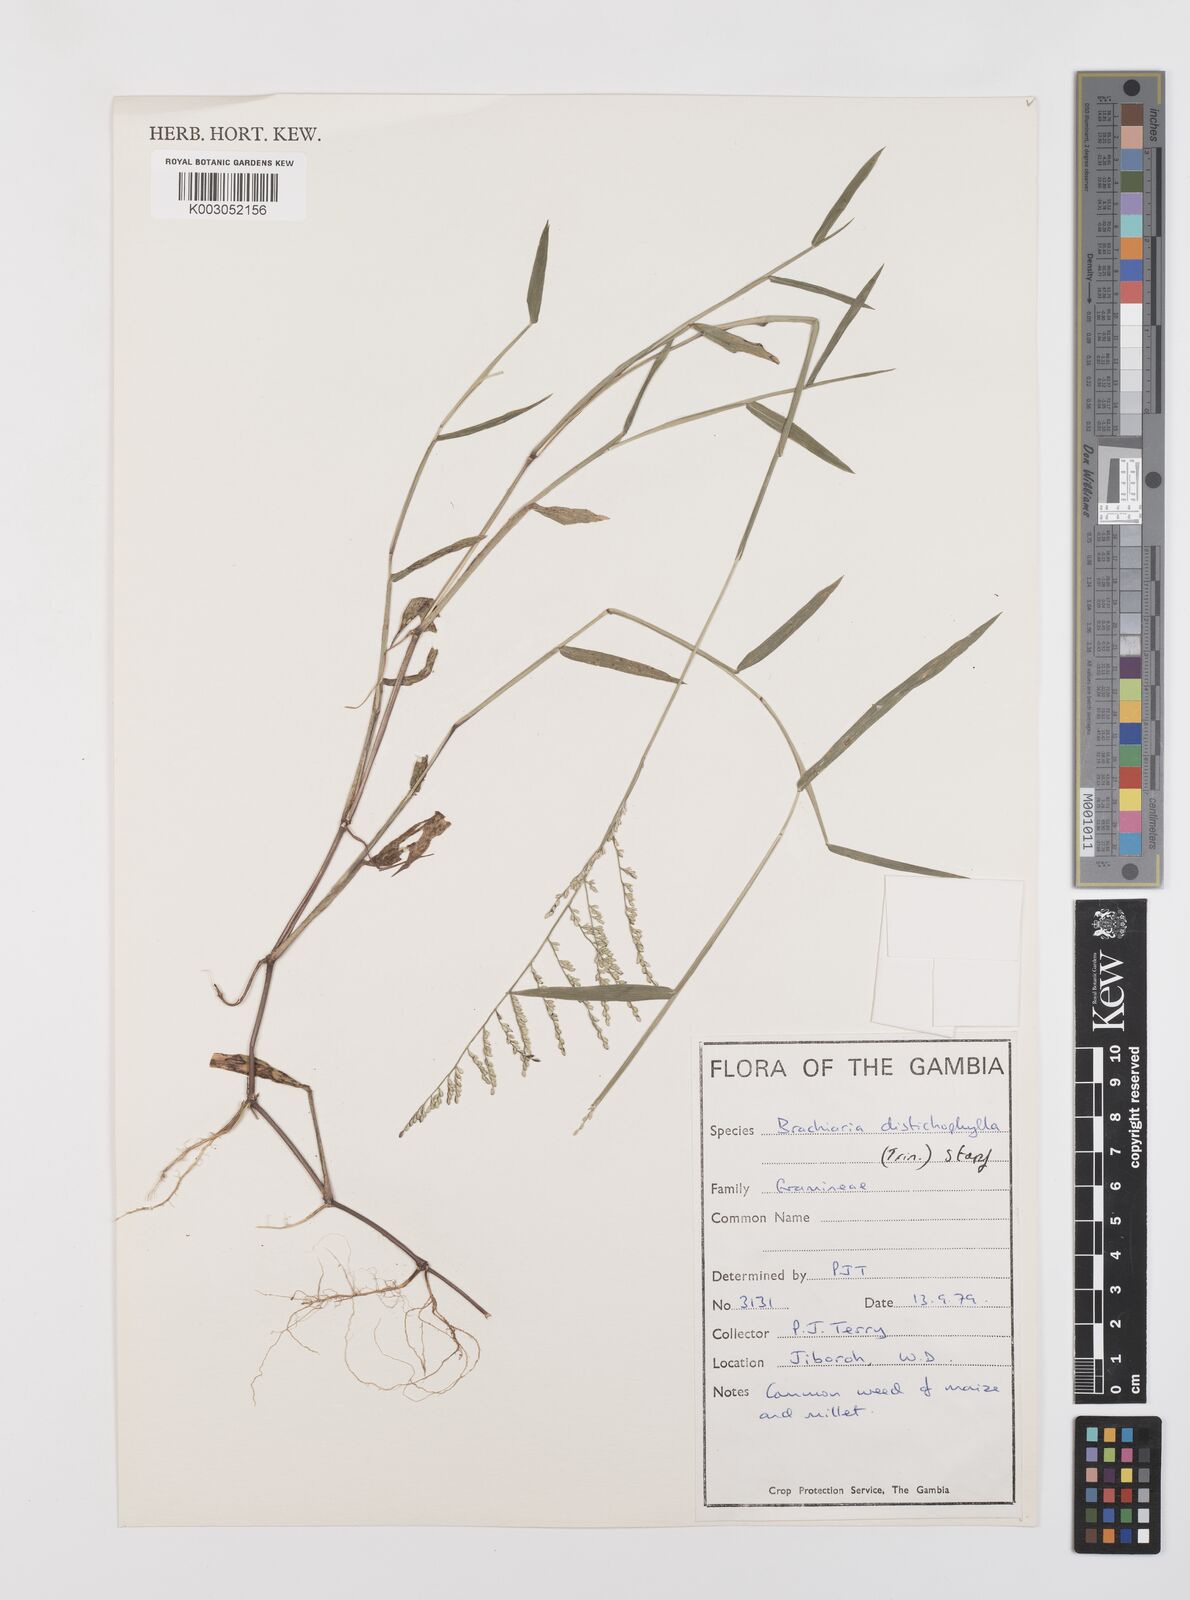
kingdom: Plantae
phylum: Tracheophyta
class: Liliopsida
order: Poales
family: Poaceae
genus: Urochloa
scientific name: Urochloa villosa
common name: Hairy signalgrass
